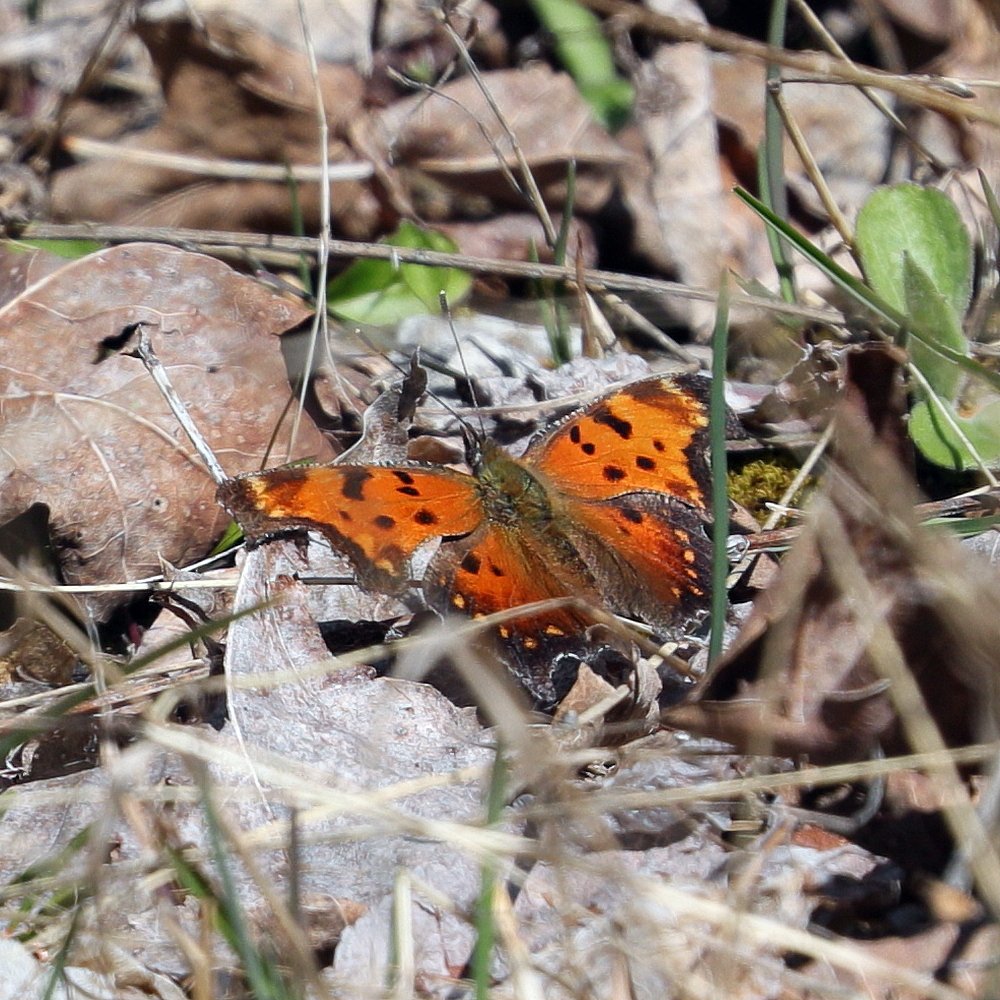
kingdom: Animalia
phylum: Arthropoda
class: Insecta
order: Lepidoptera
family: Nymphalidae
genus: Polygonia
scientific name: Polygonia progne
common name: Gray Comma
